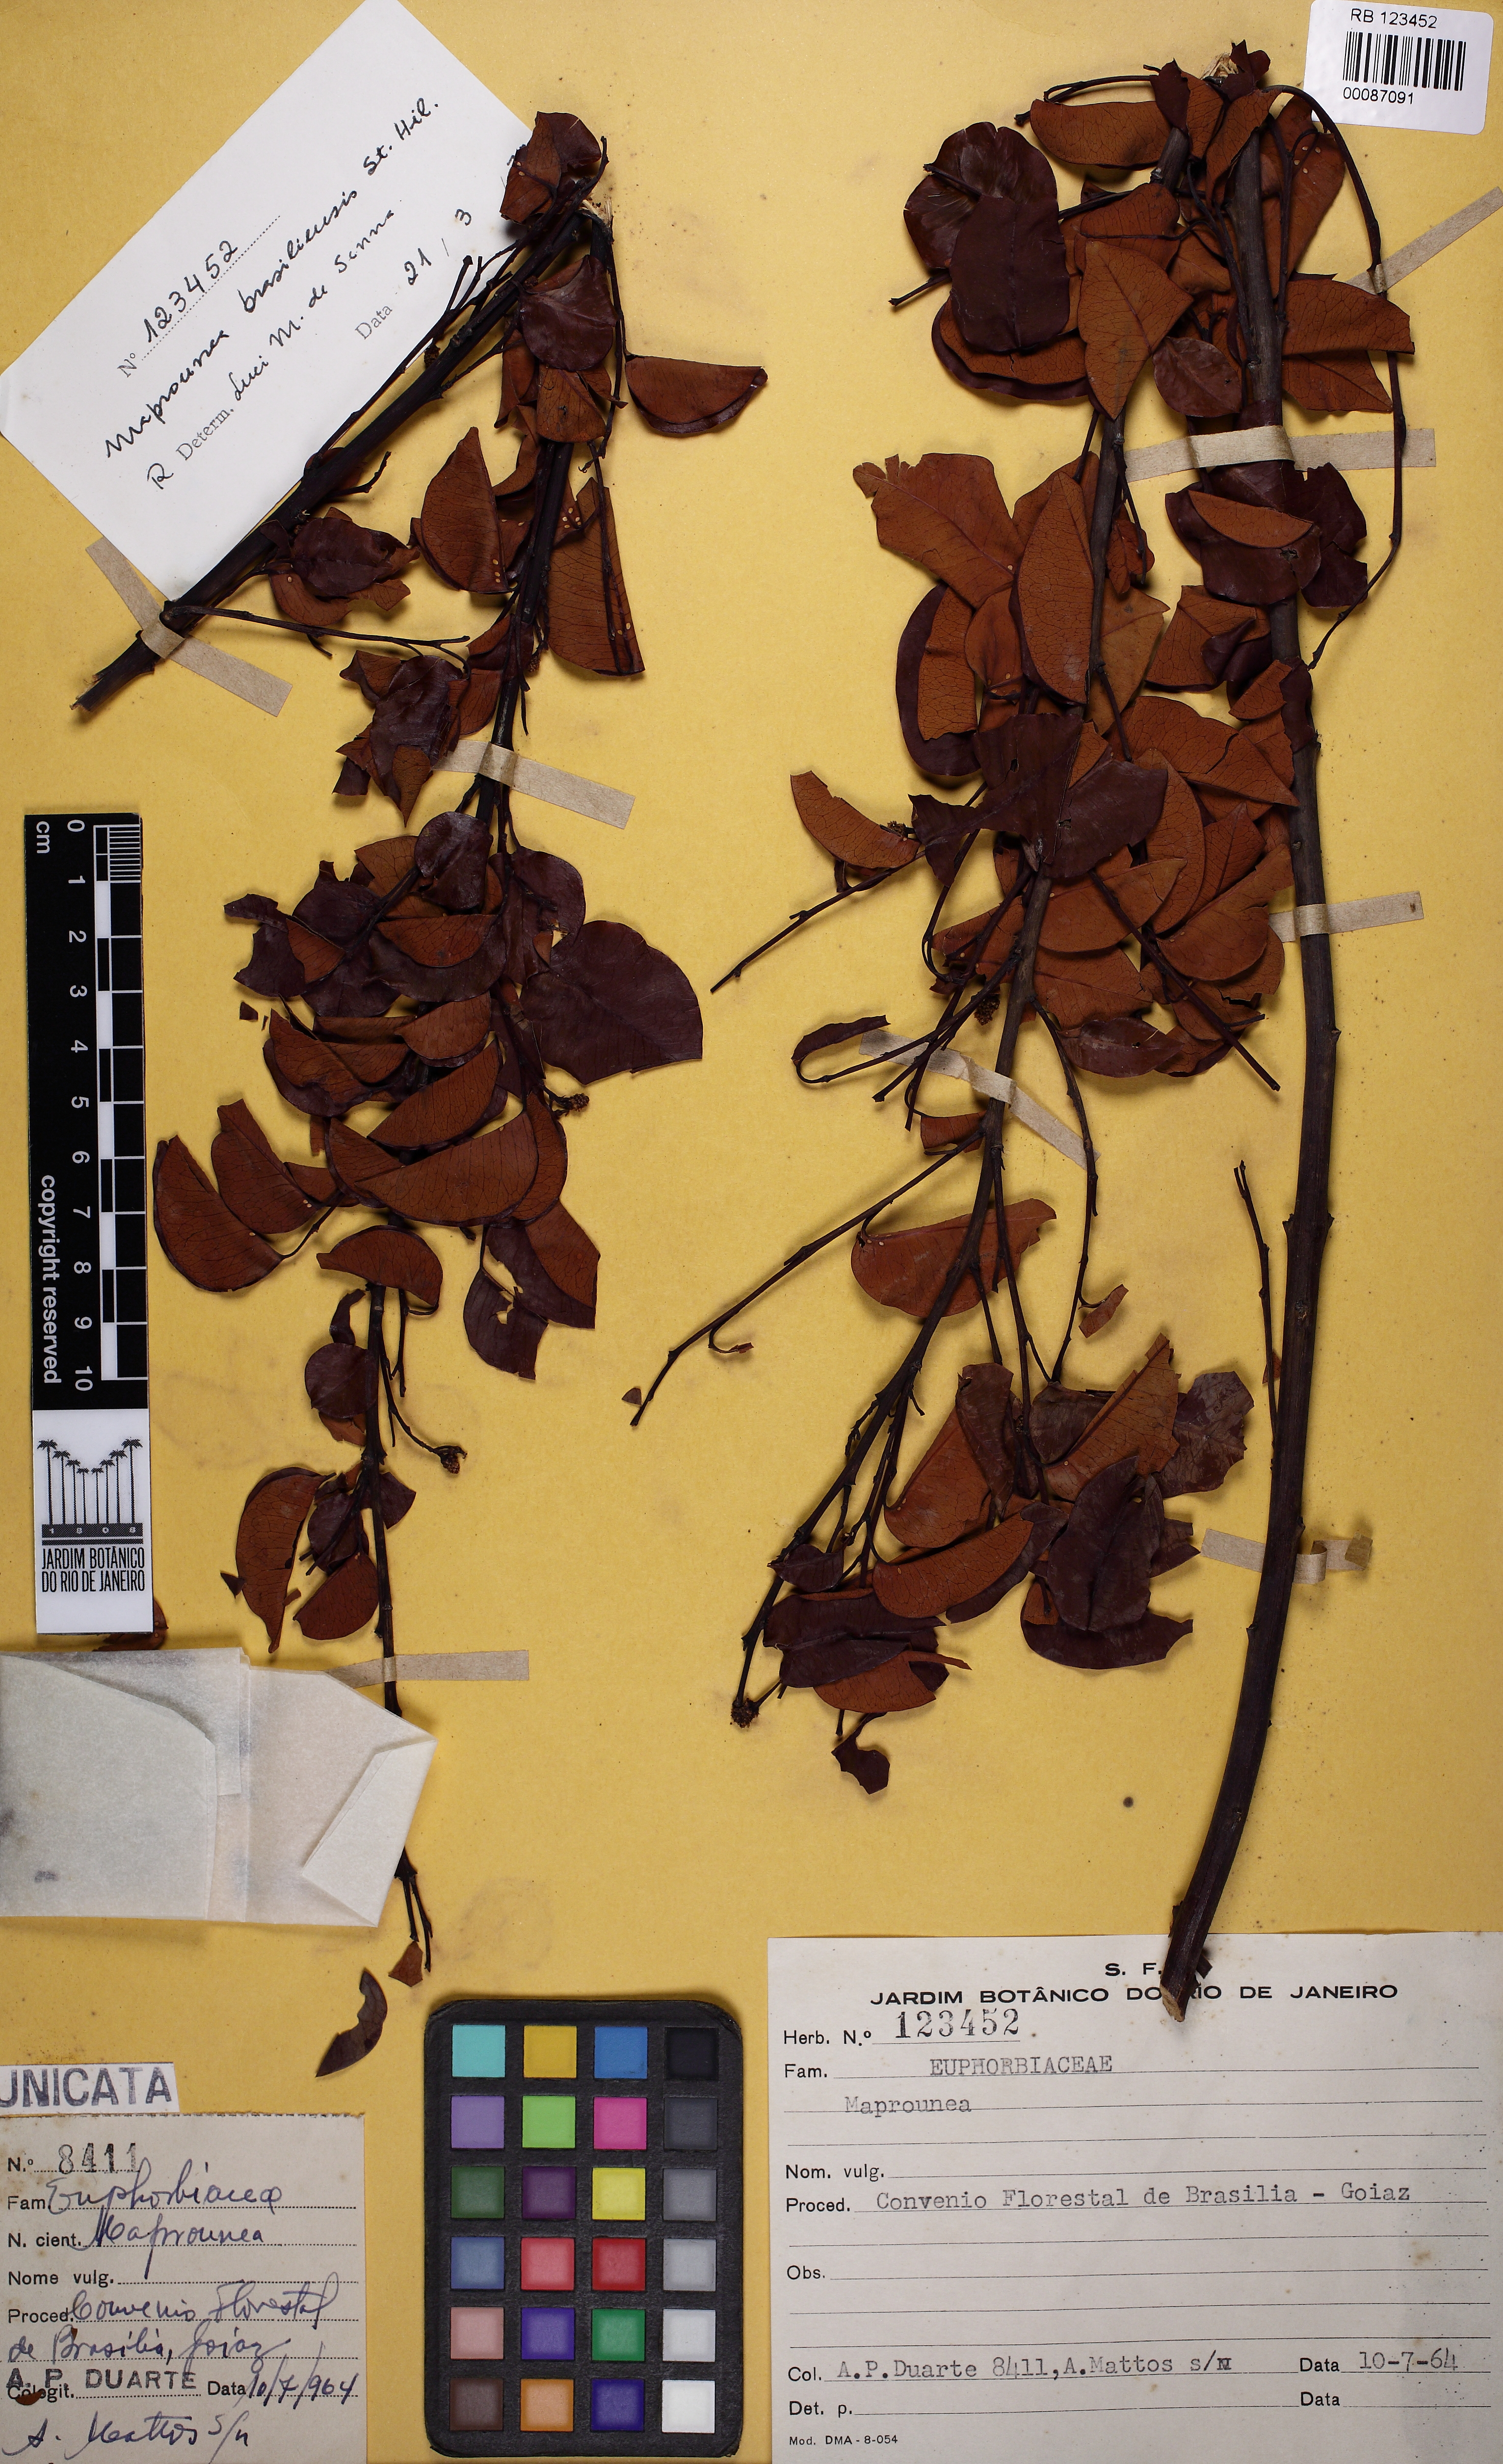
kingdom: Plantae
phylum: Tracheophyta
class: Magnoliopsida
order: Malpighiales
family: Euphorbiaceae
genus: Maprounea
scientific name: Maprounea brasiliensis
